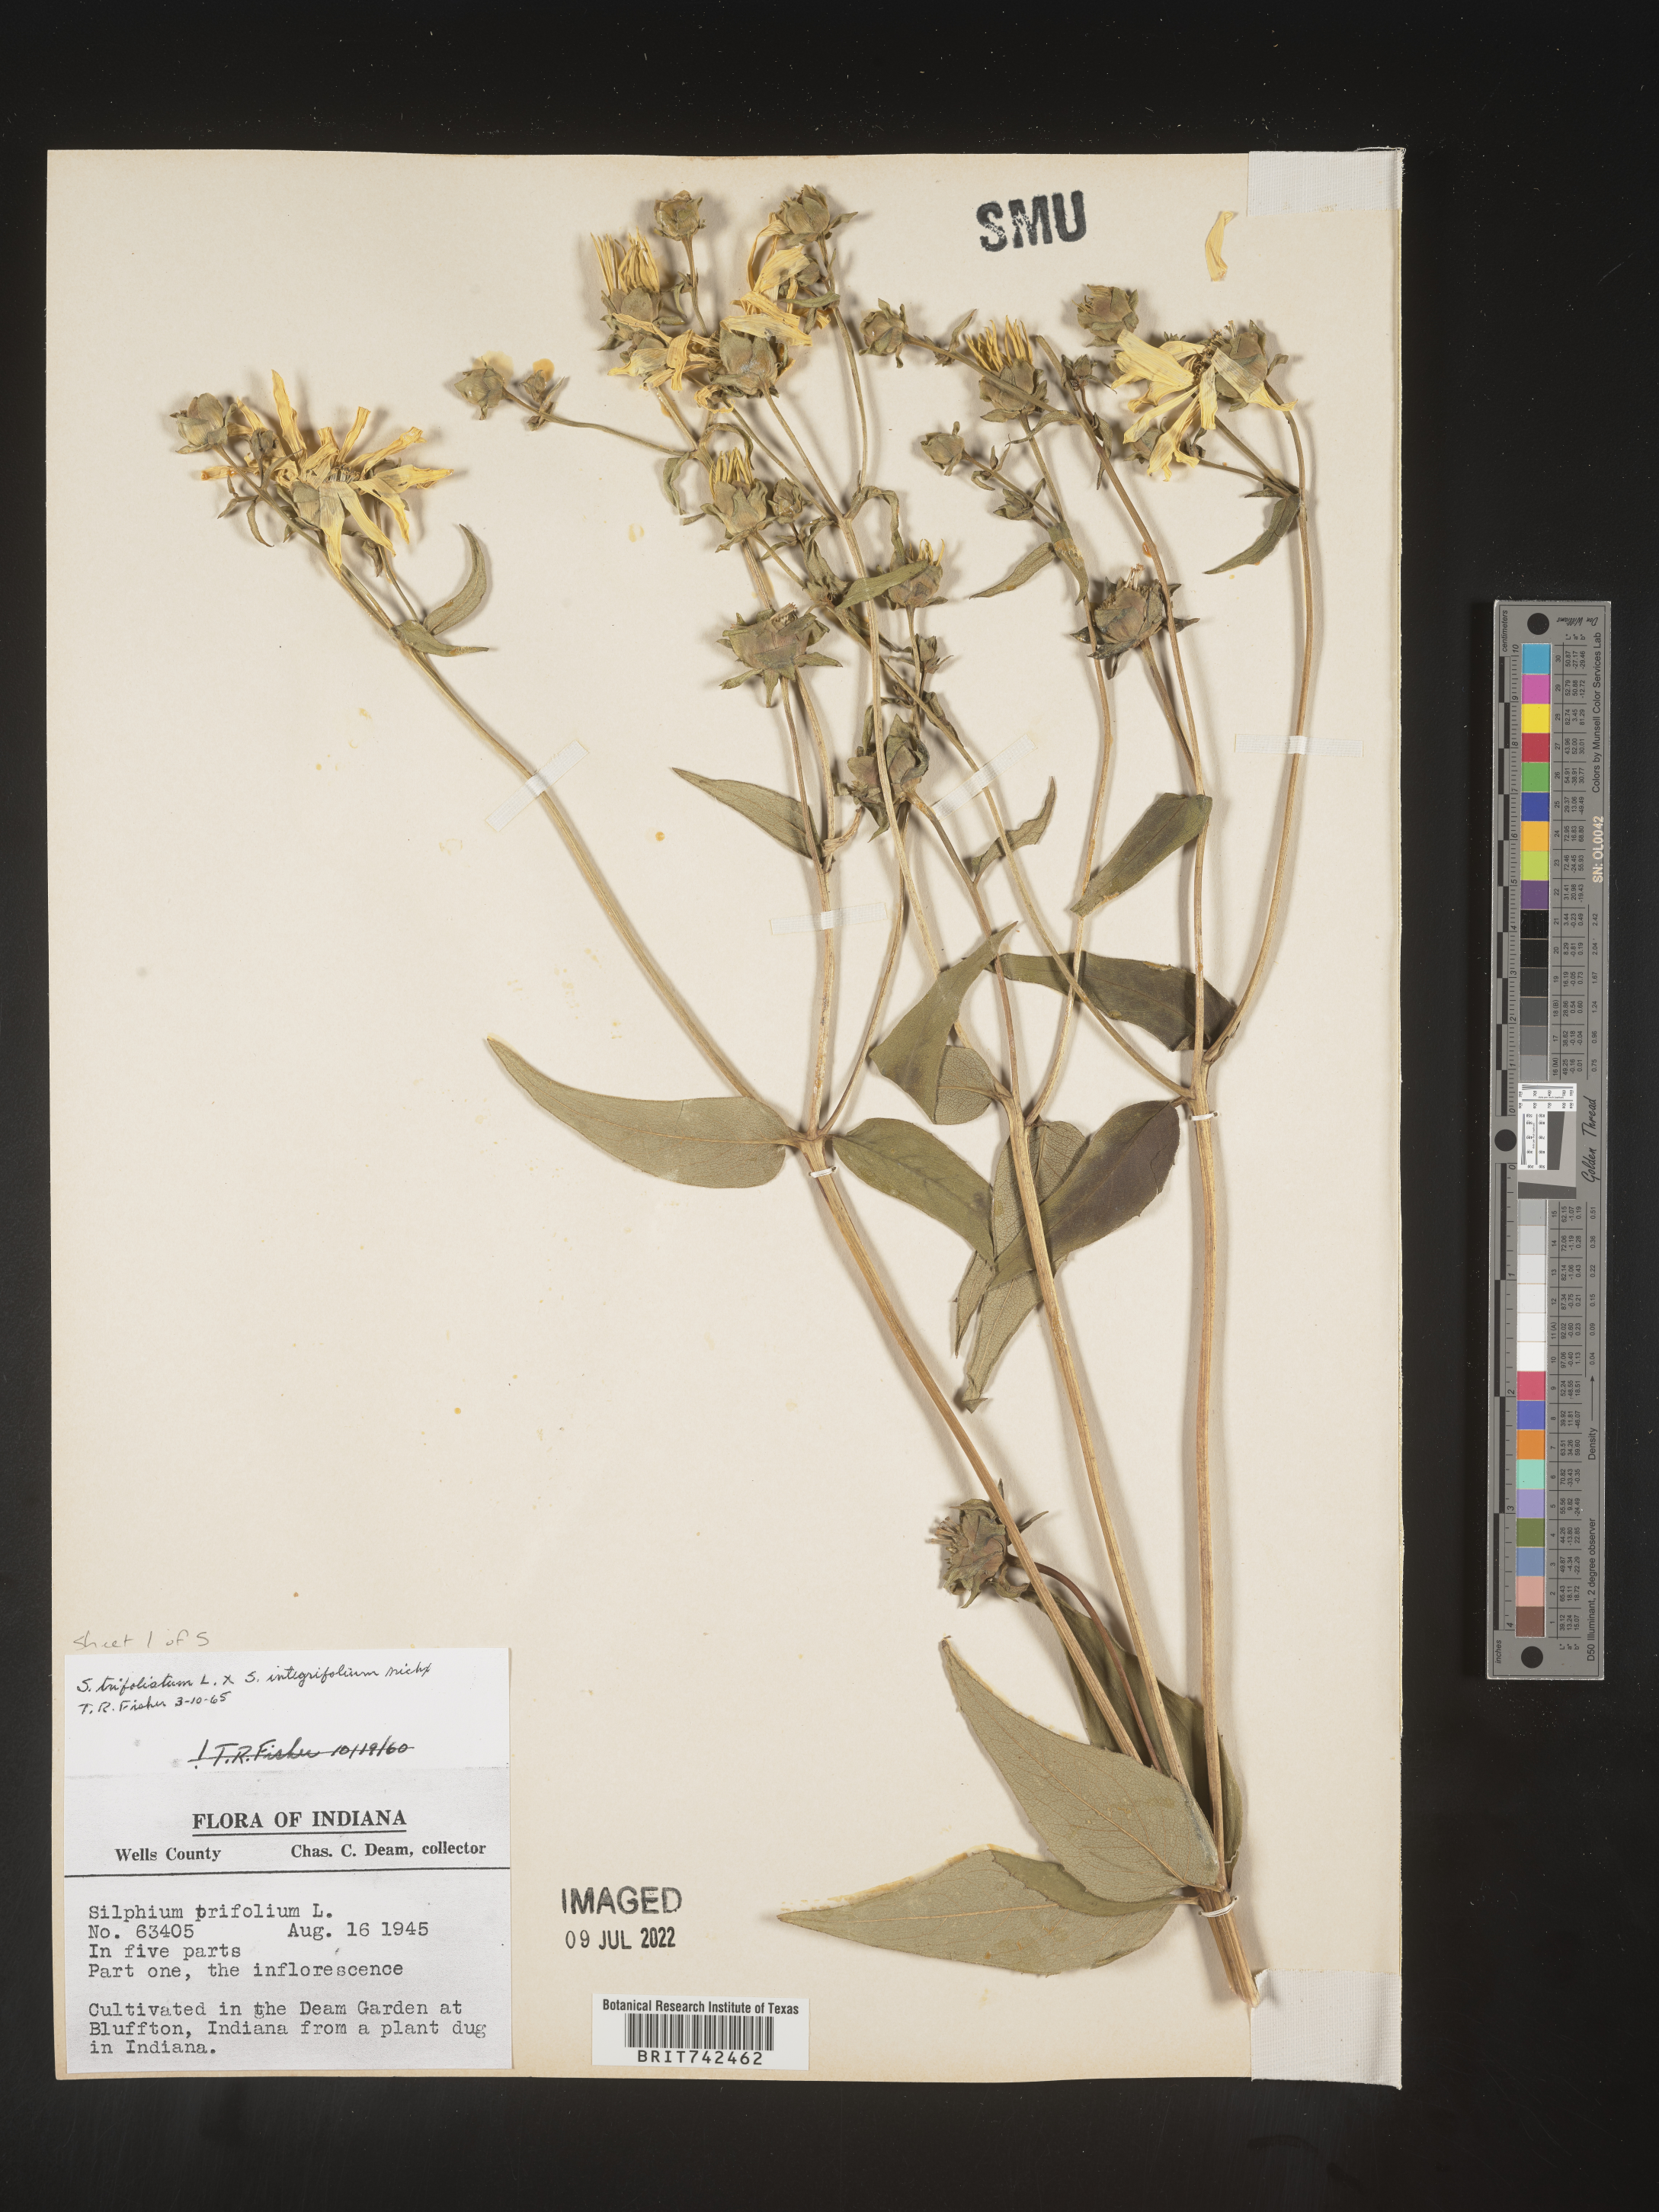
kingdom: Plantae
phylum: Tracheophyta
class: Magnoliopsida
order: Asterales
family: Asteraceae
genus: Silphium
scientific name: Silphium asteriscus
